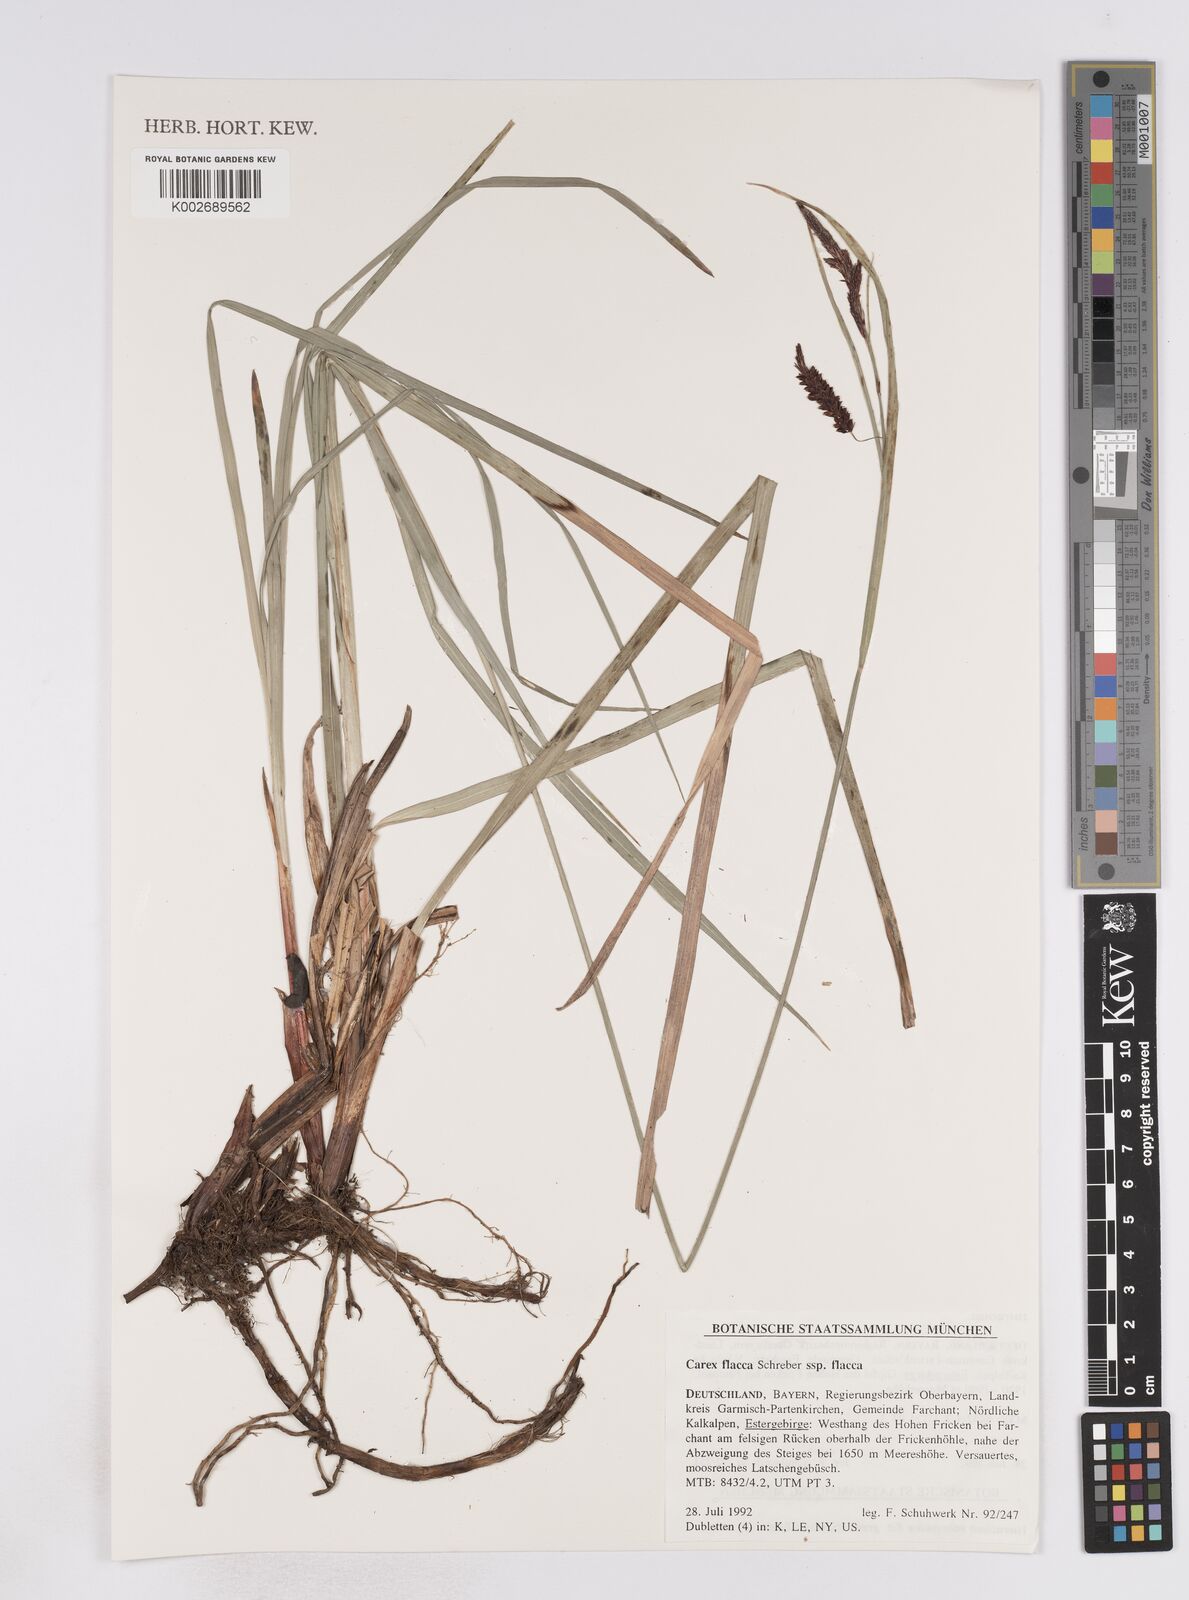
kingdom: Plantae
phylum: Tracheophyta
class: Liliopsida
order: Poales
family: Cyperaceae
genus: Carex
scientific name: Carex flacca
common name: Glaucous sedge
